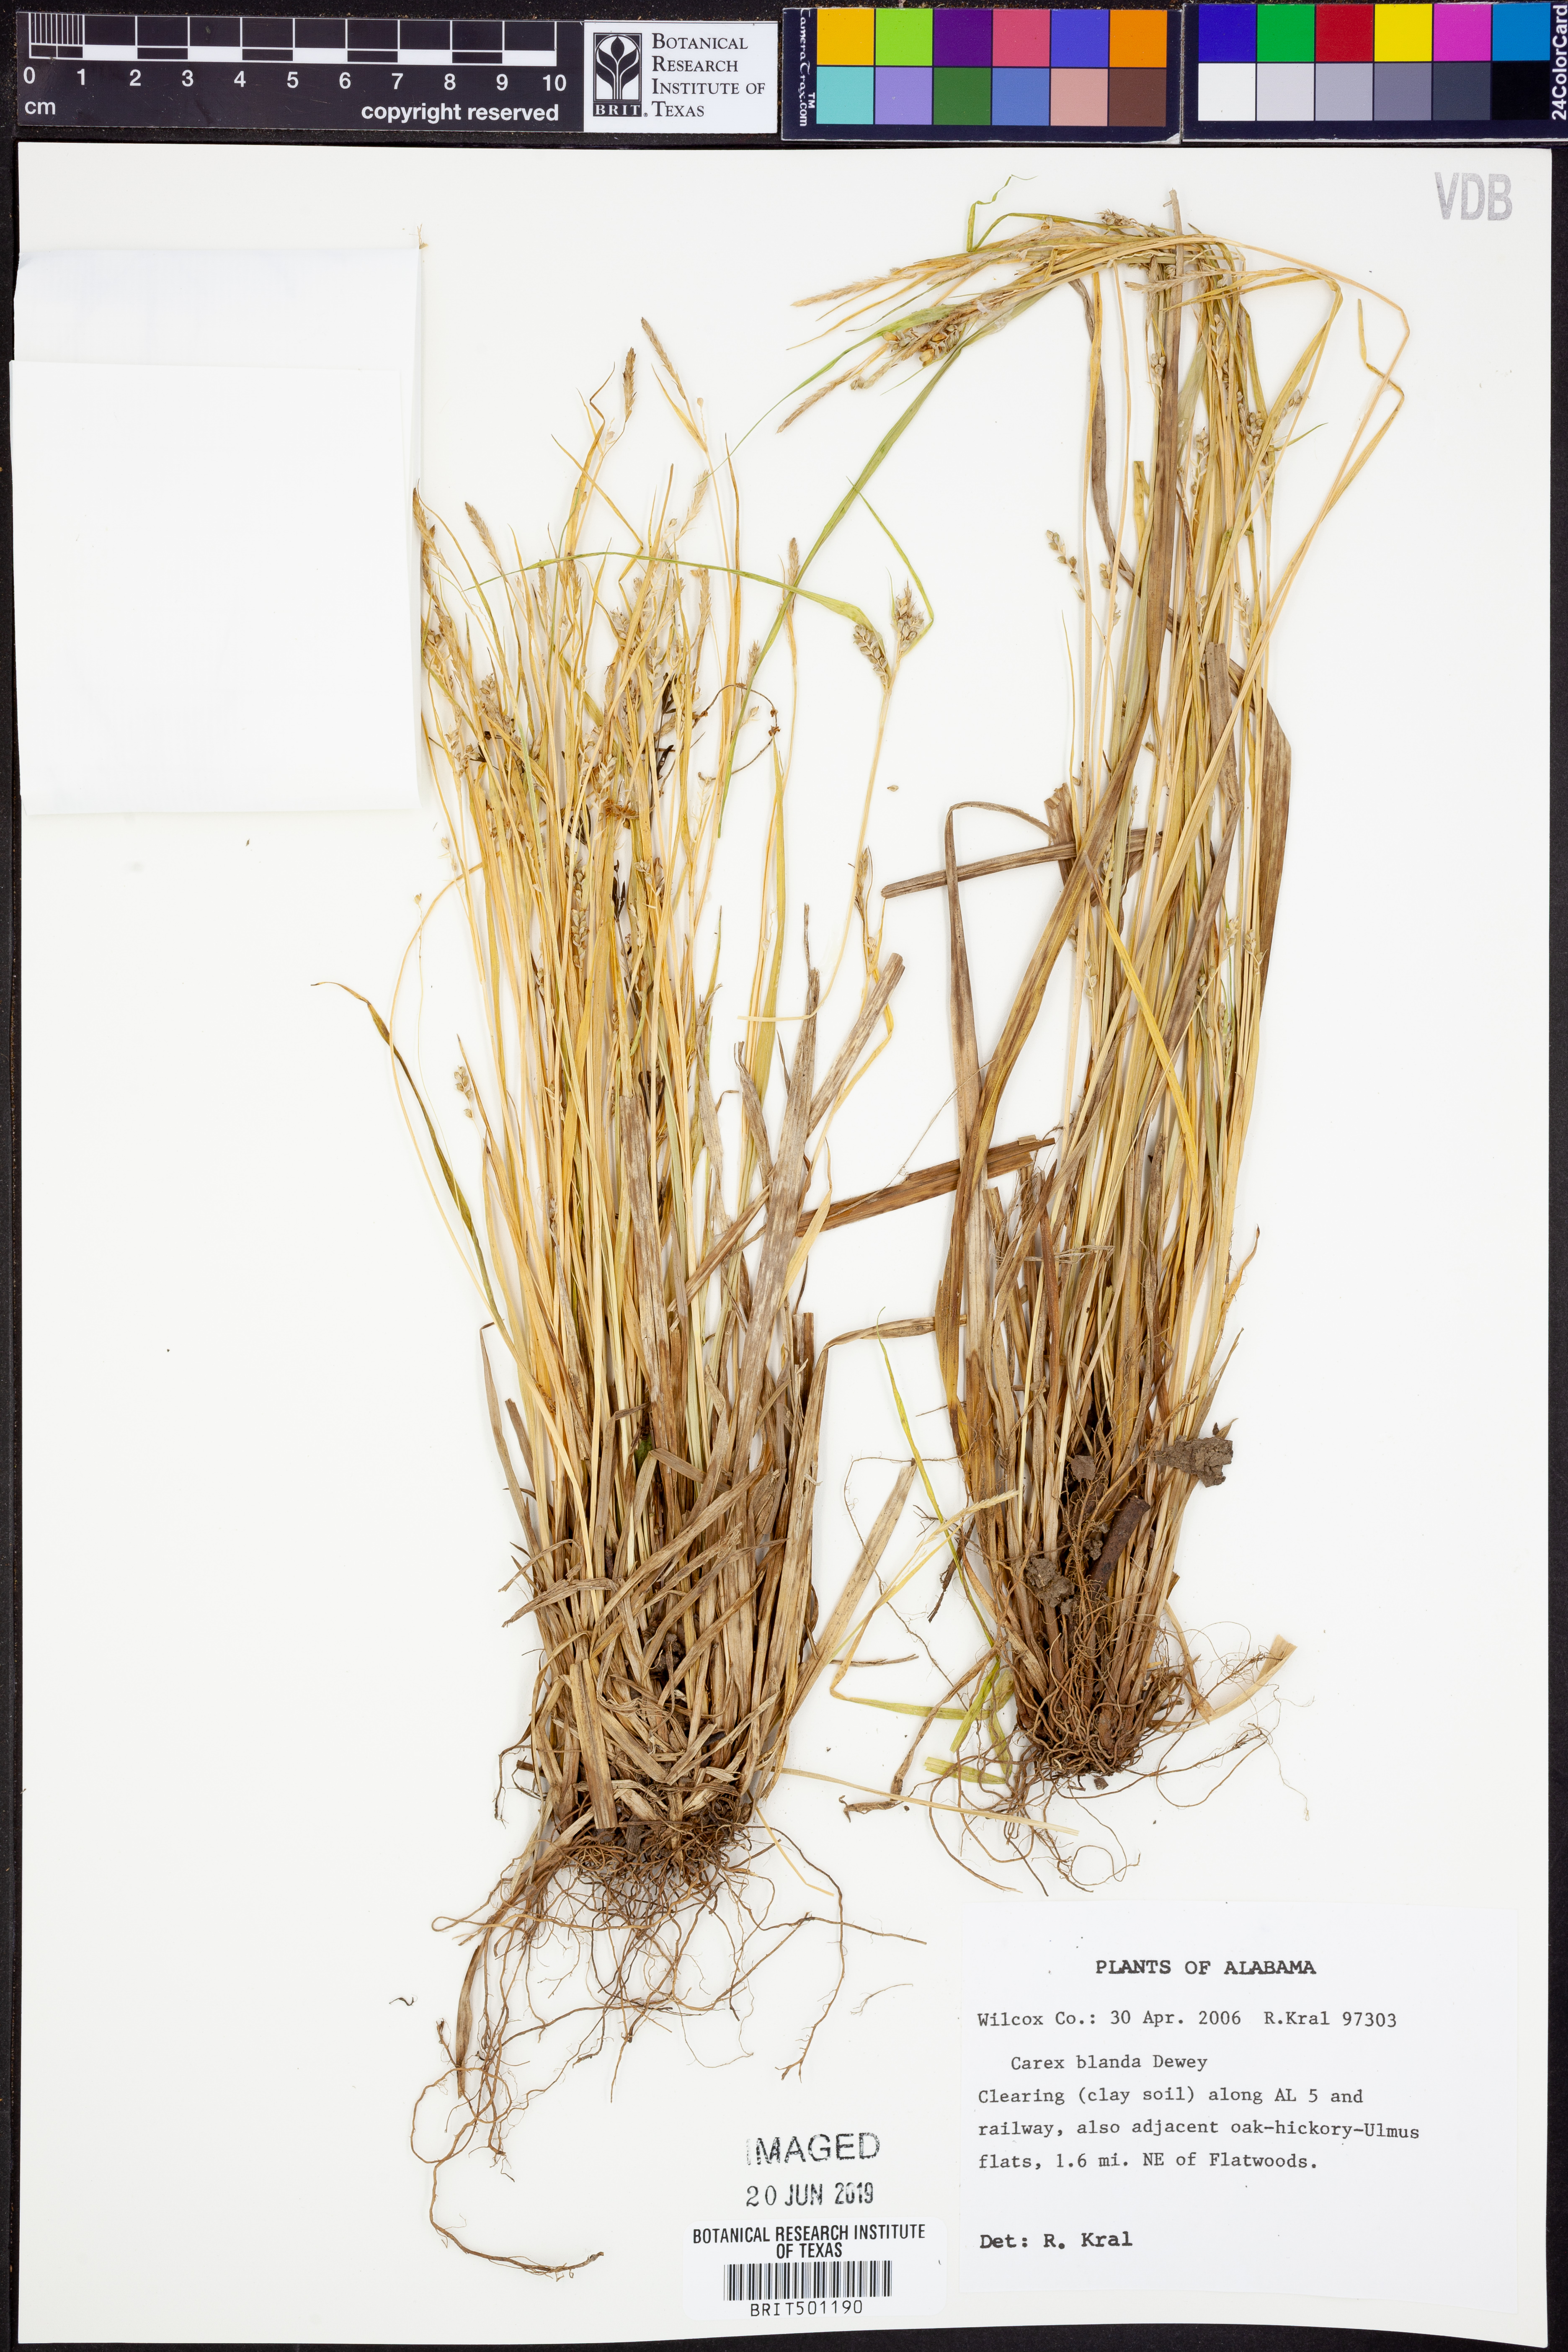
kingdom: Plantae
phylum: Tracheophyta
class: Liliopsida
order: Poales
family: Cyperaceae
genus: Carex
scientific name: Carex blanda
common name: Bland sedge
